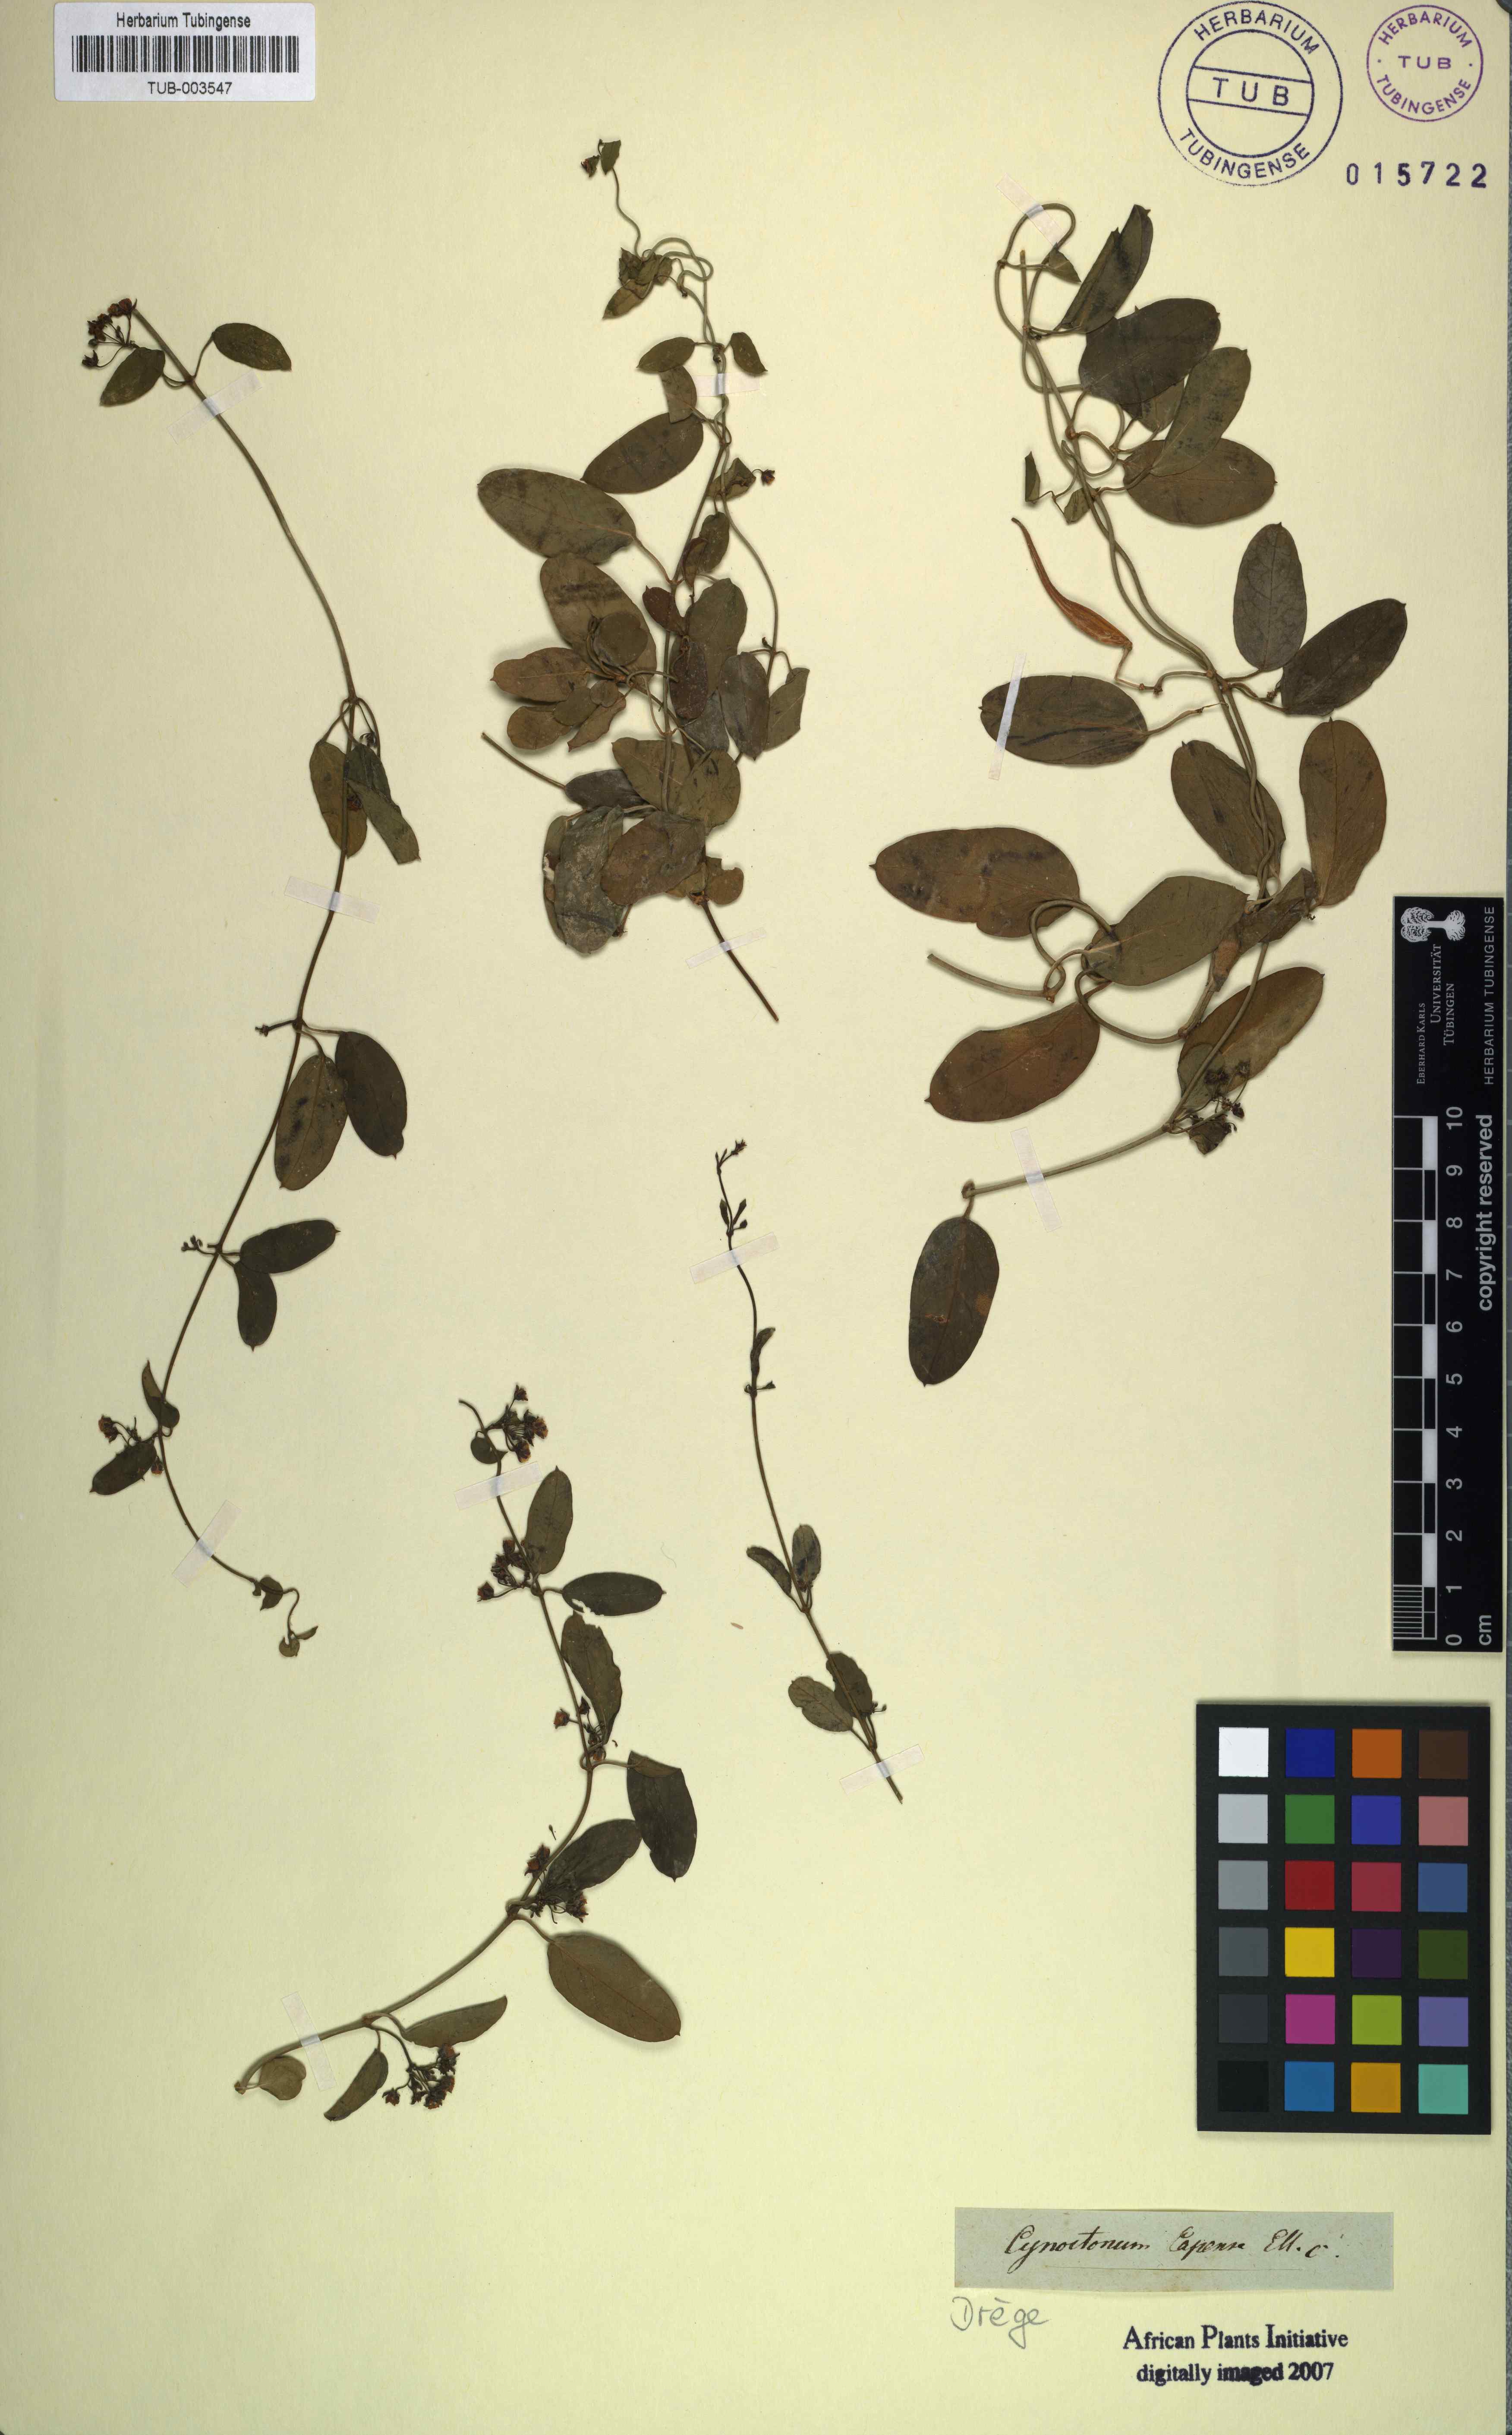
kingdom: Plantae
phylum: Tracheophyta
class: Magnoliopsida
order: Gentianales
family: Apocynaceae
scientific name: Apocynaceae
